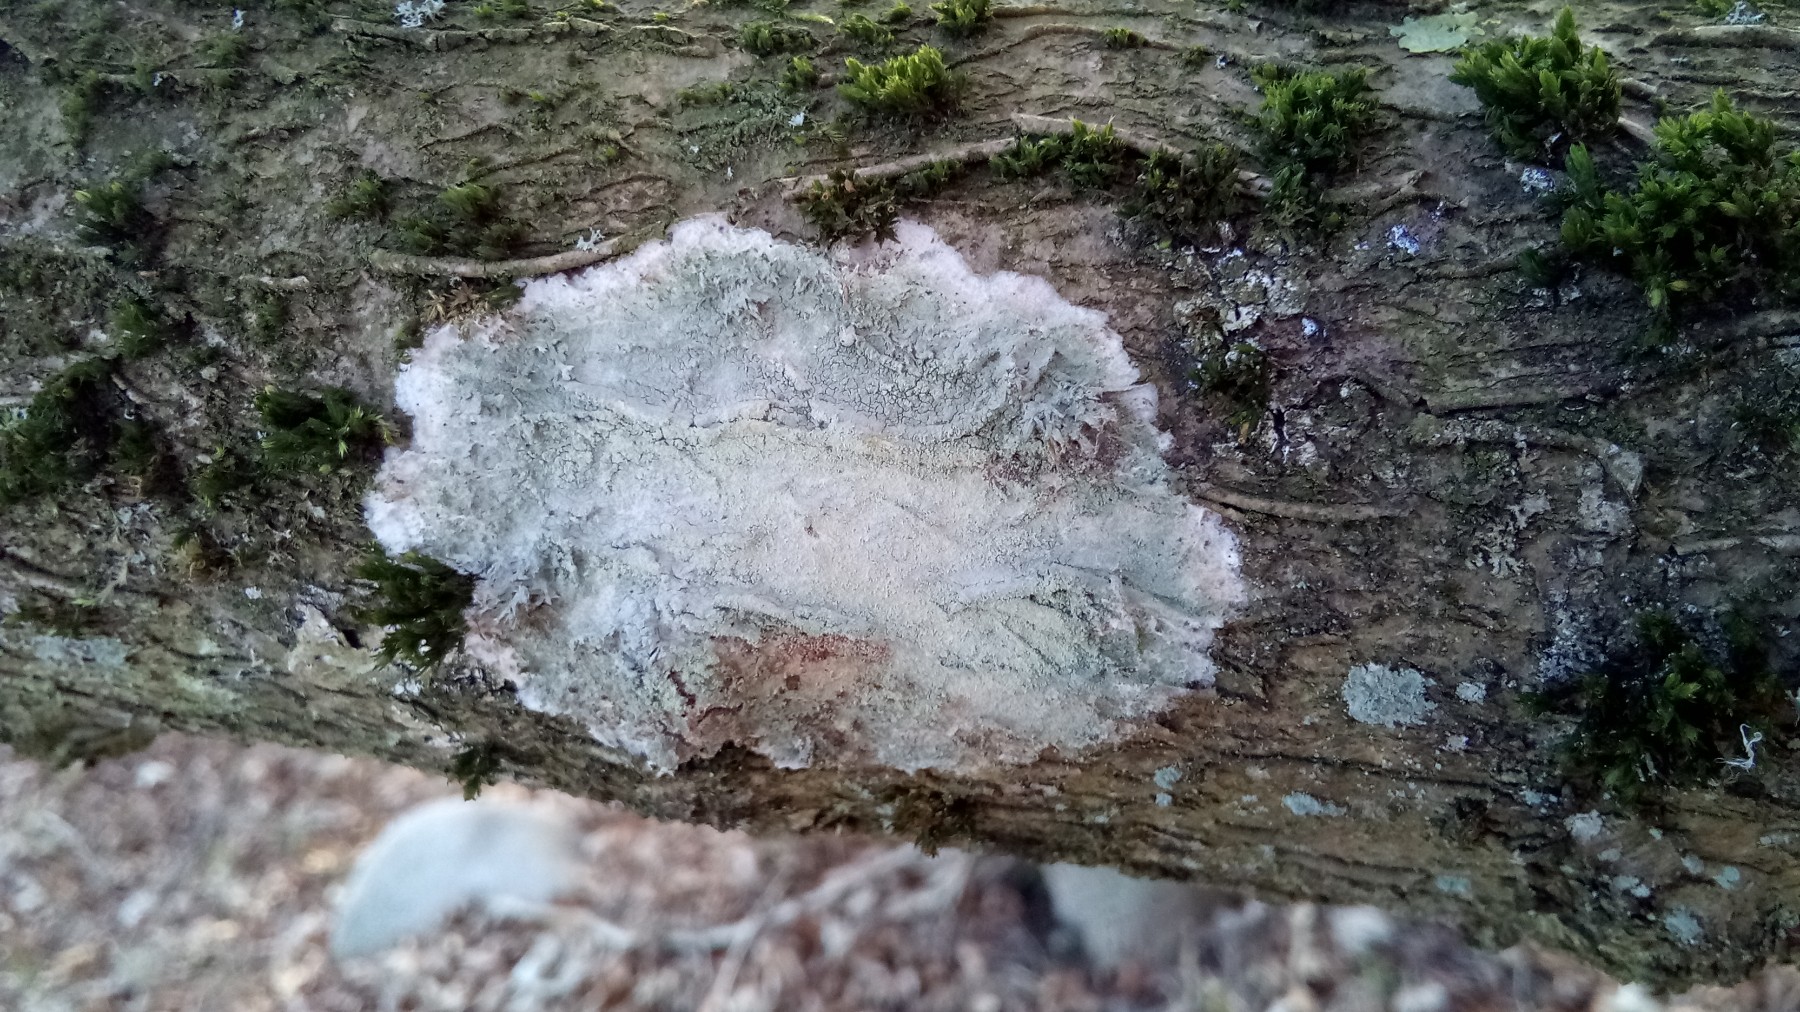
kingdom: Fungi
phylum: Ascomycota
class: Lecanoromycetes
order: Ostropales
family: Phlyctidaceae
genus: Phlyctis
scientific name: Phlyctis argena
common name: almindelig sølvlav
